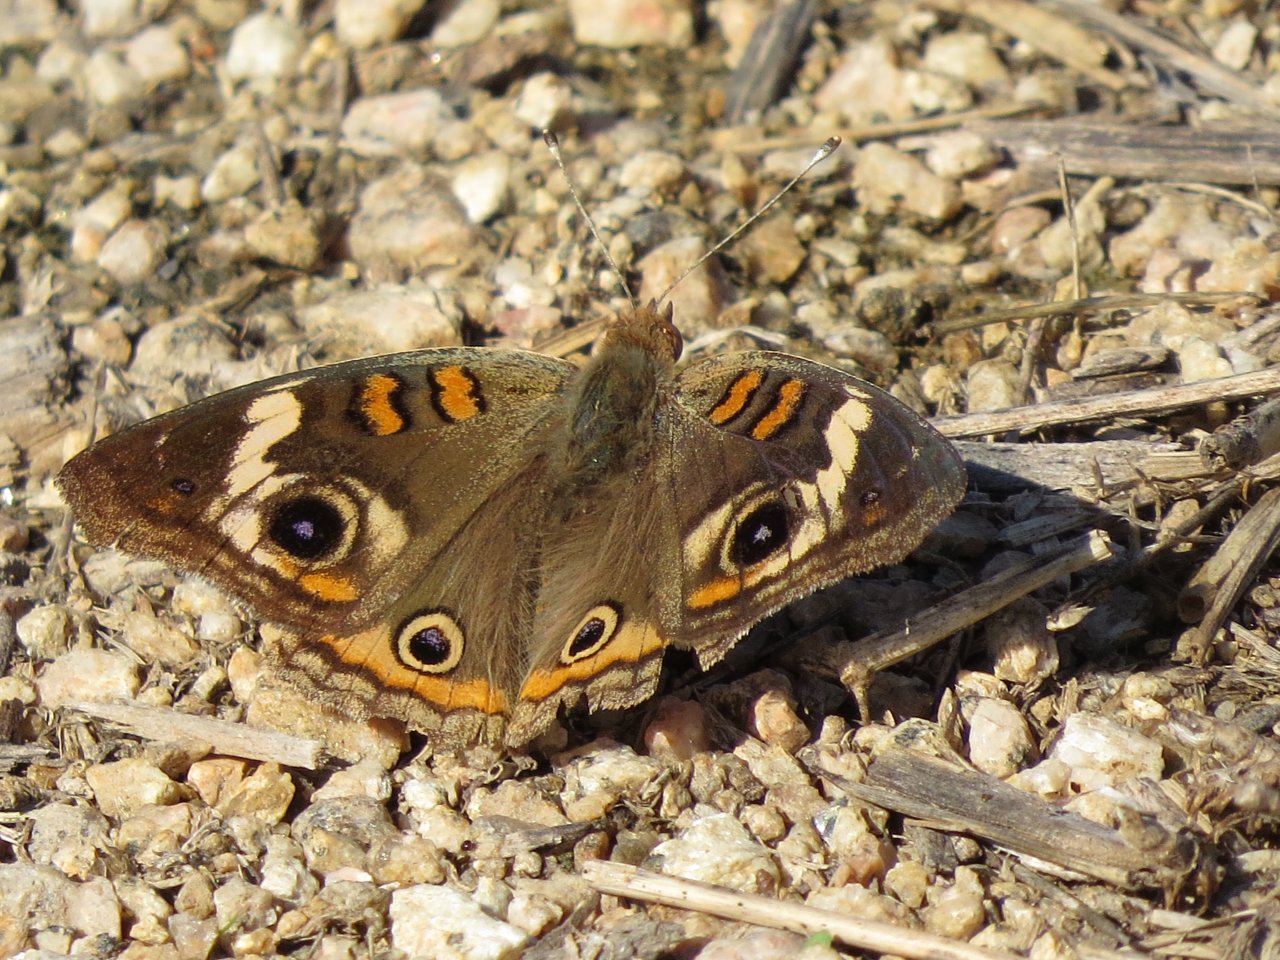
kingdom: Animalia
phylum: Arthropoda
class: Insecta
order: Lepidoptera
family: Nymphalidae
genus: Junonia
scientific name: Junonia coenia
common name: Common Buckeye
